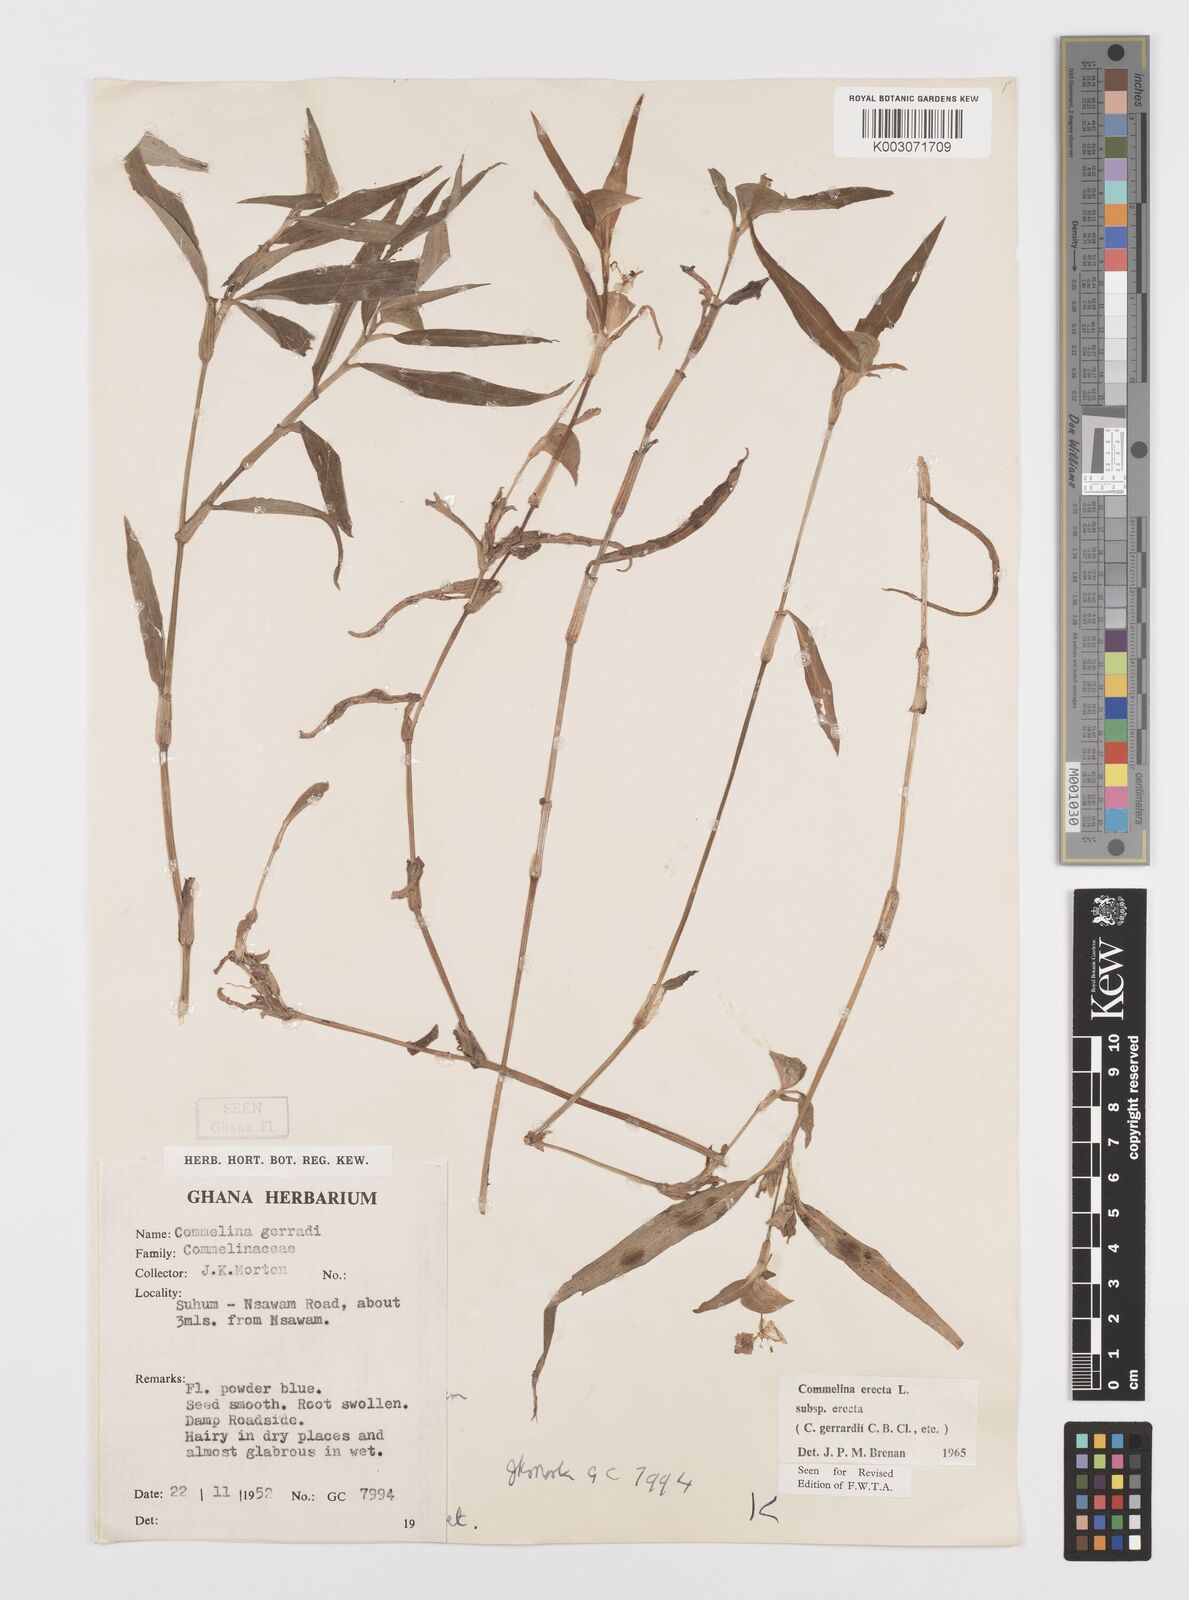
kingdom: Plantae
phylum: Tracheophyta
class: Liliopsida
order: Commelinales
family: Commelinaceae
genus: Commelina
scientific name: Commelina erecta
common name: Blousel blommetjie
